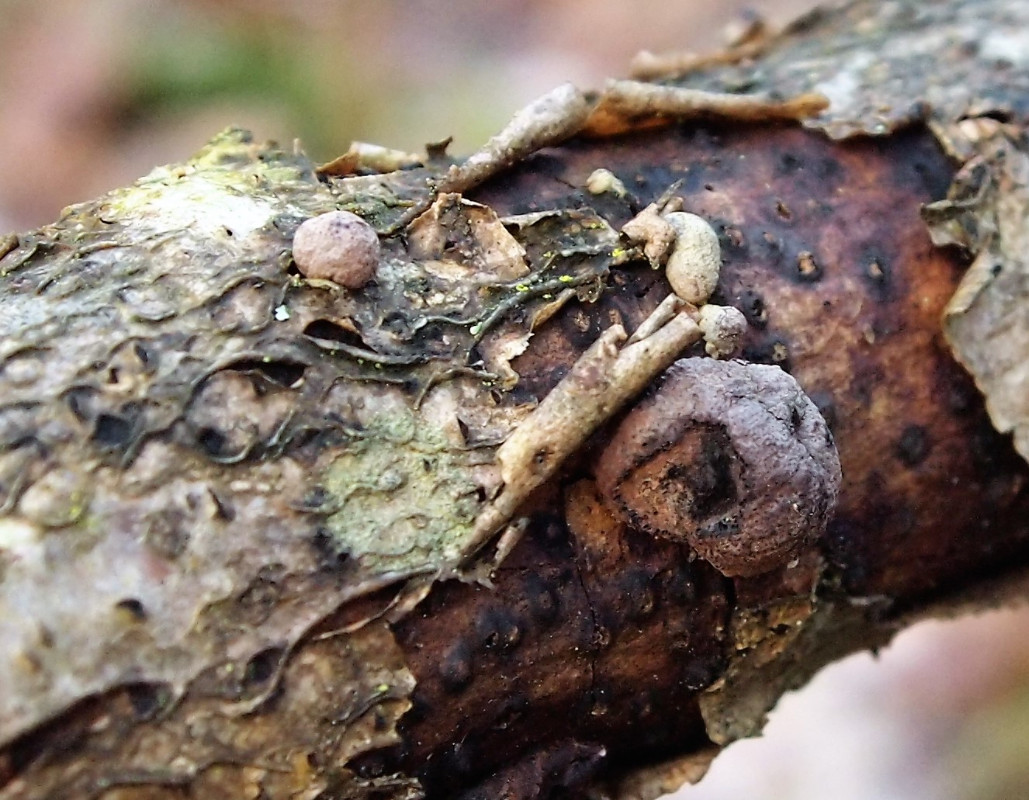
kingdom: Fungi
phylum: Ascomycota
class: Sordariomycetes
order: Xylariales
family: Hypoxylaceae
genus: Hypoxylon
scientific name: Hypoxylon howeanum
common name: halvkugleformet kulbær
